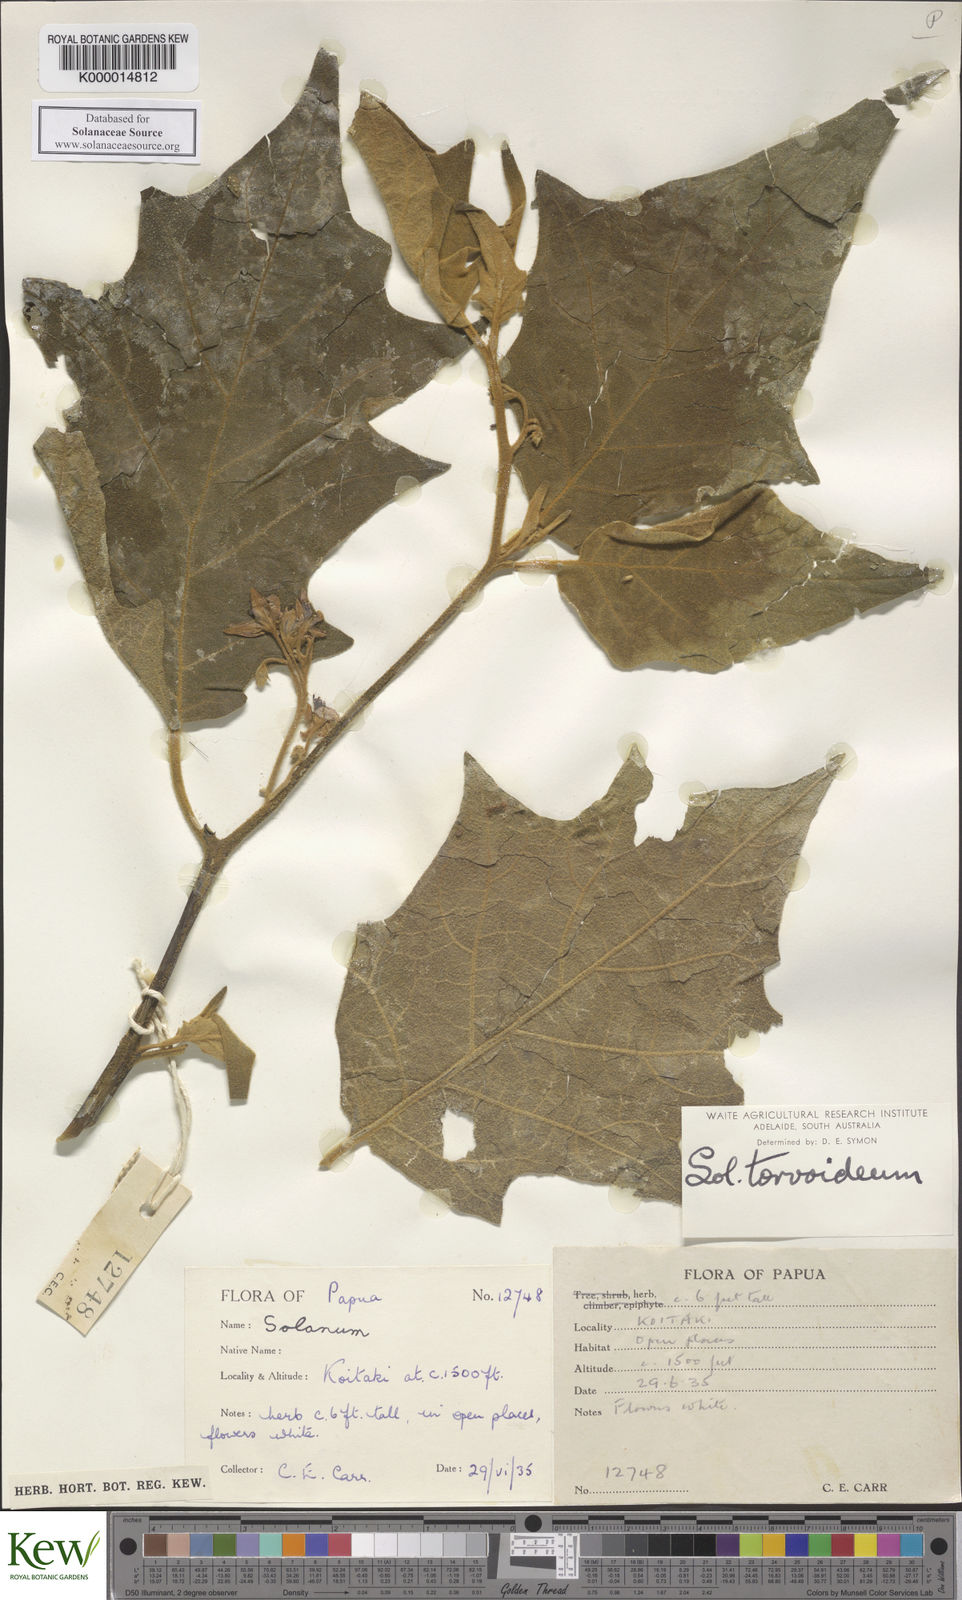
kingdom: Plantae
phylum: Tracheophyta
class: Magnoliopsida
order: Solanales
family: Solanaceae
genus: Solanum
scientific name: Solanum torvoideum
